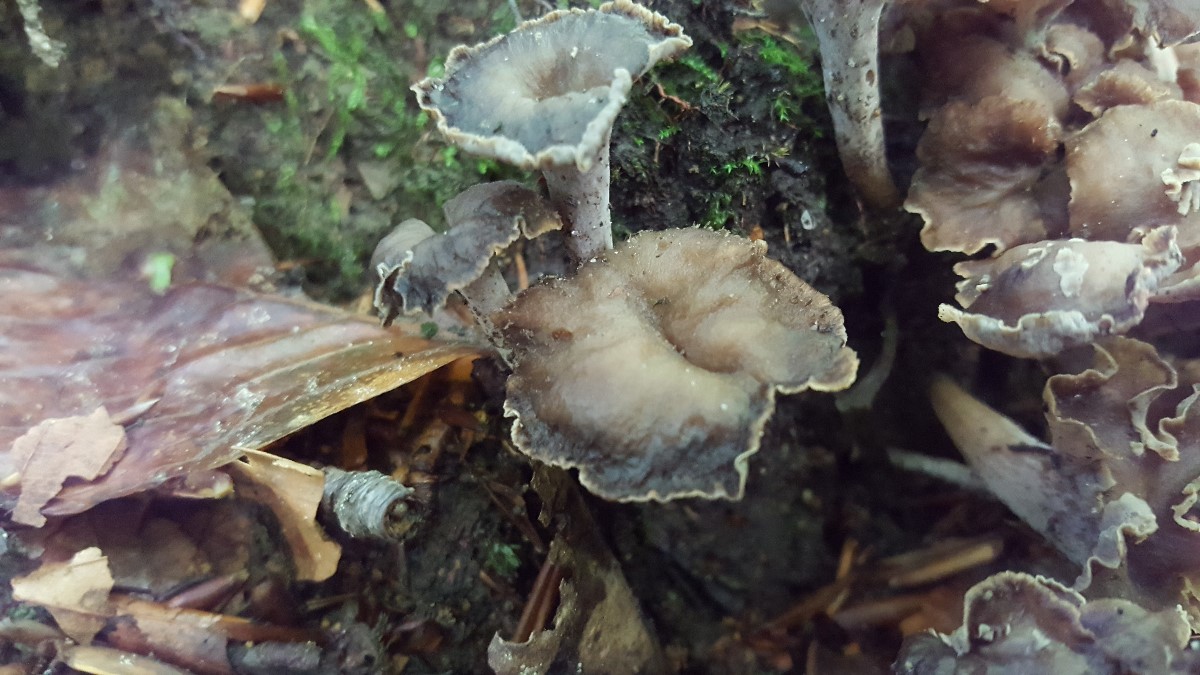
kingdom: Fungi
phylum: Basidiomycota
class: Agaricomycetes
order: Cantharellales
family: Hydnaceae
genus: Craterellus
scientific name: Craterellus undulatus
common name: liden kantarel
